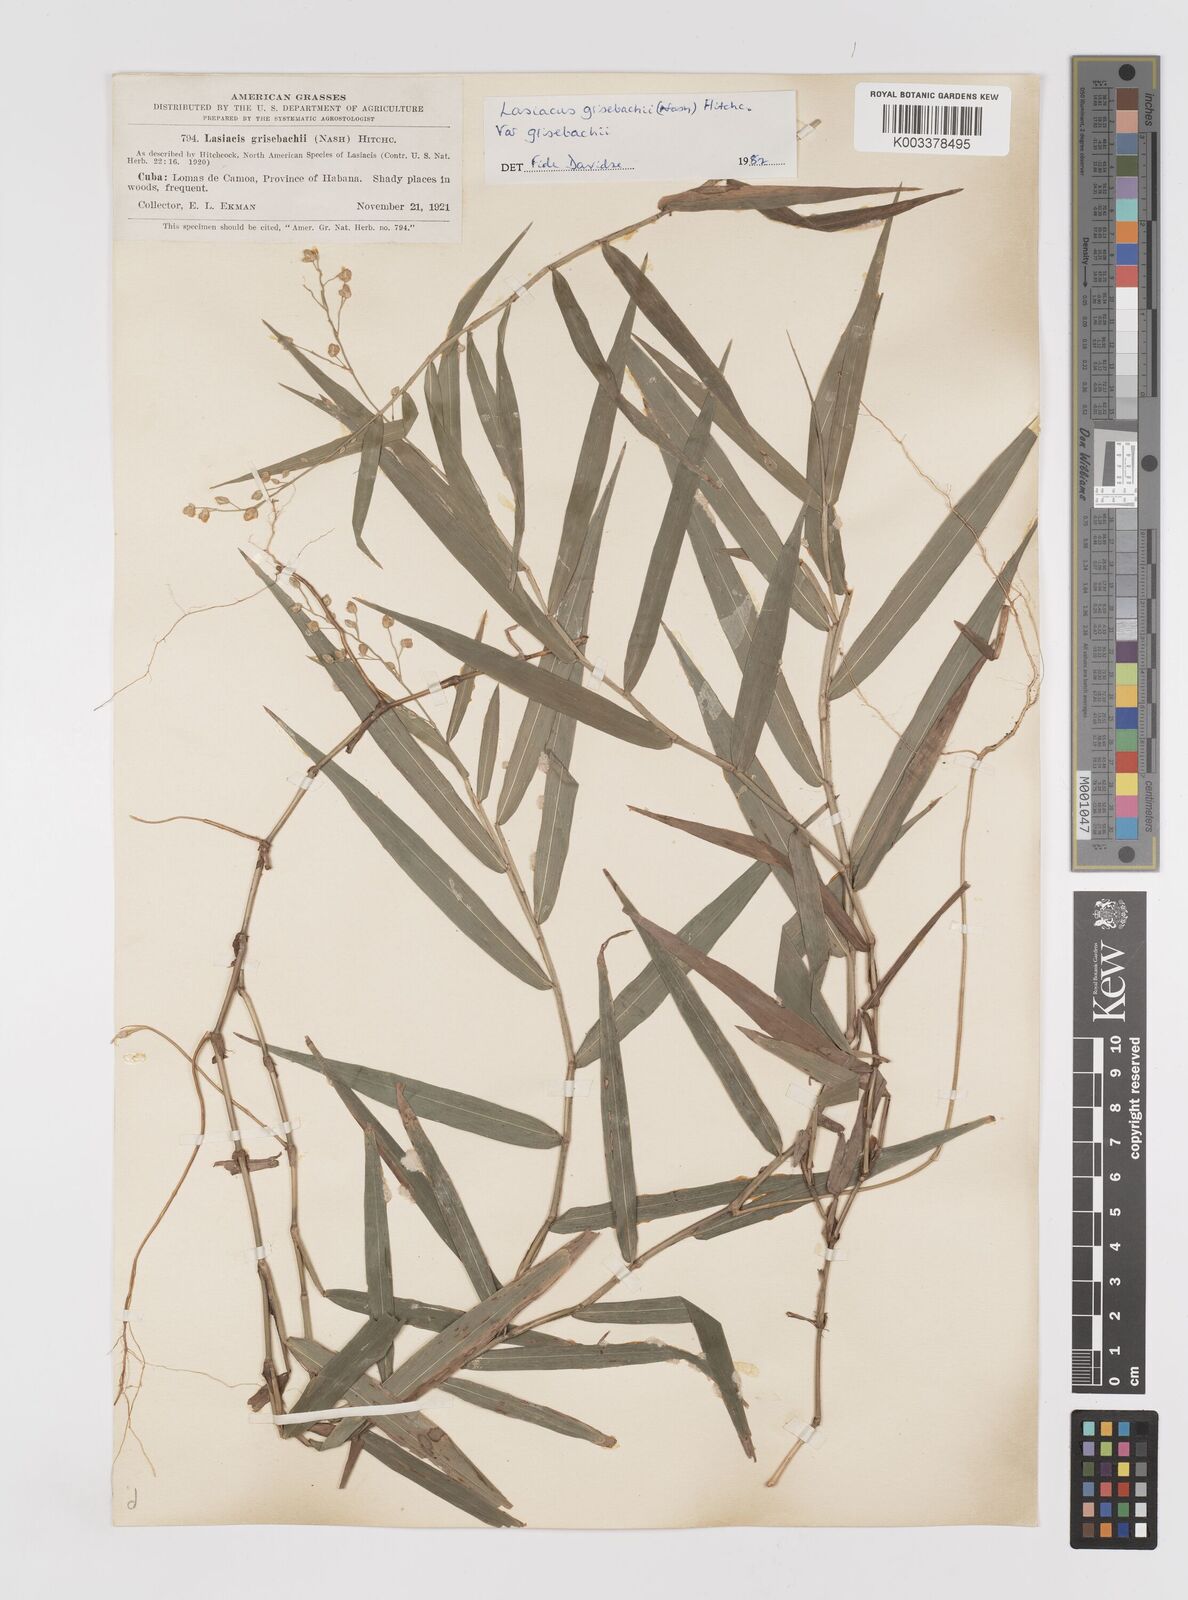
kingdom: Plantae
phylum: Tracheophyta
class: Liliopsida
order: Poales
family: Poaceae
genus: Lasiacis
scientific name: Lasiacis grisebachii
